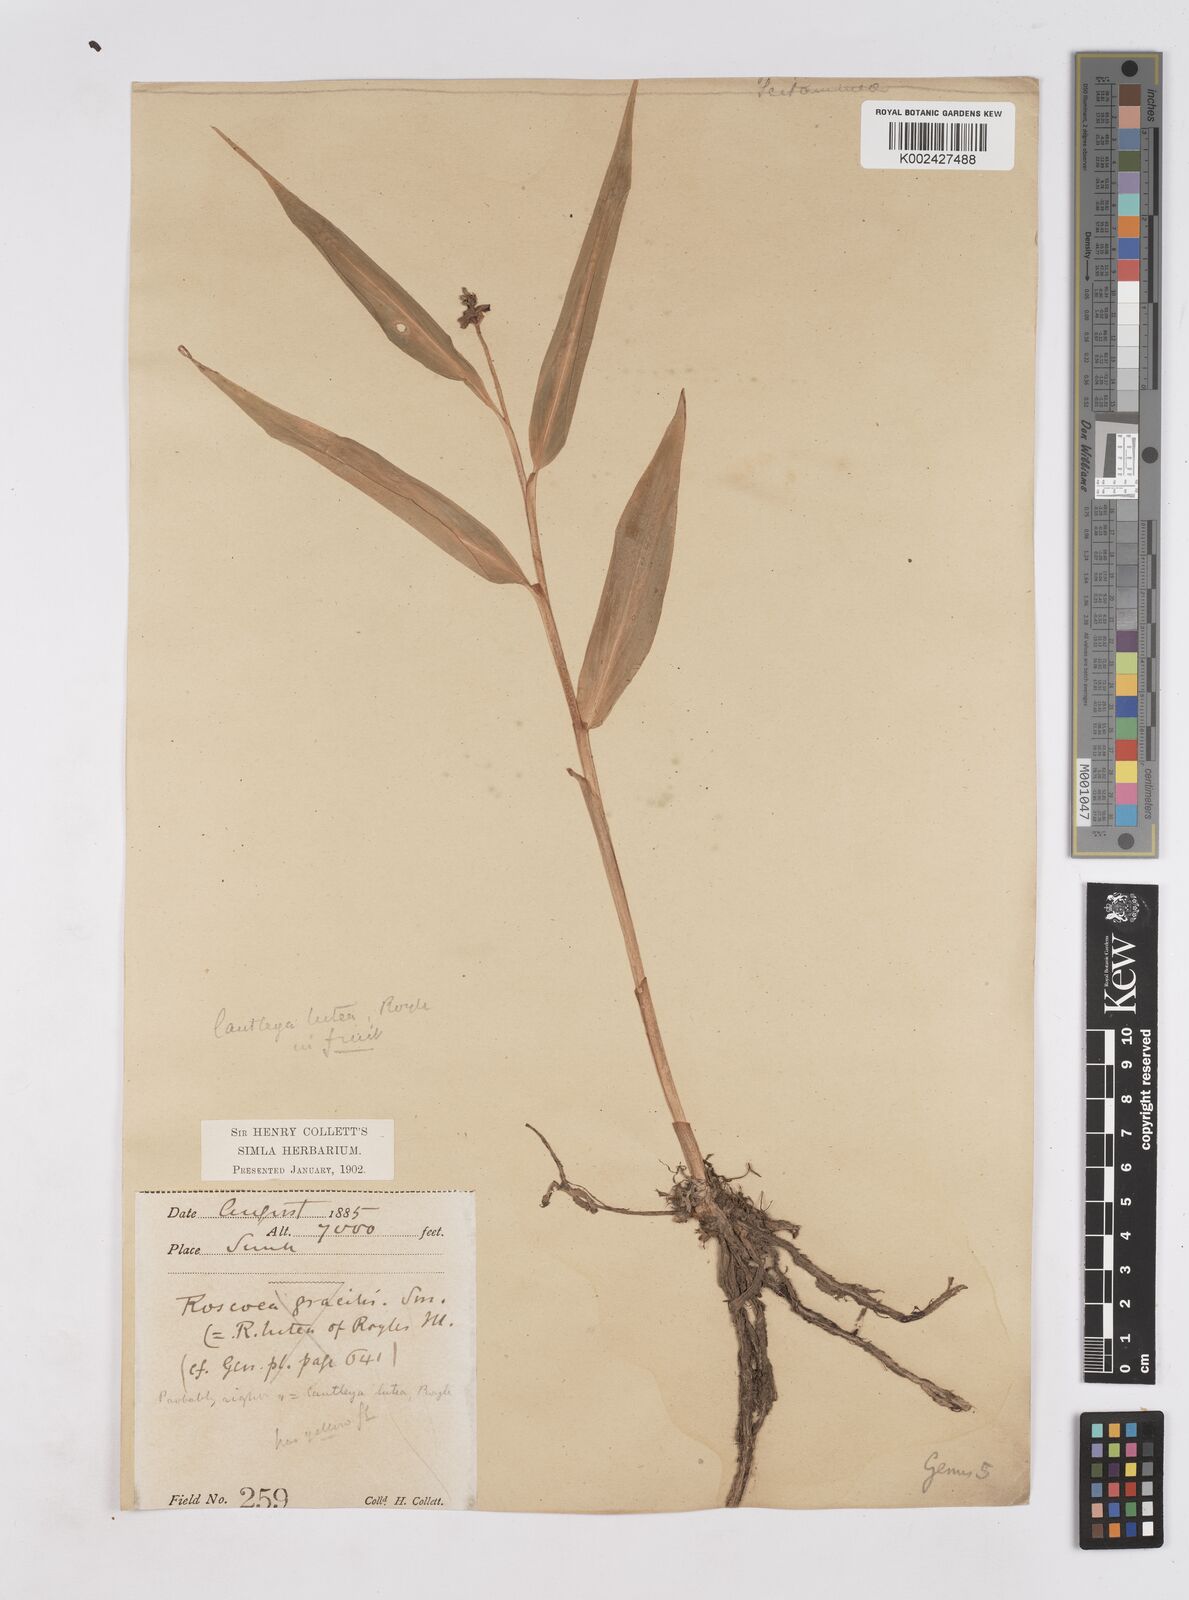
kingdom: Plantae
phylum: Tracheophyta
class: Liliopsida
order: Zingiberales
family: Zingiberaceae
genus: Cautleya
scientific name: Cautleya gracilis
